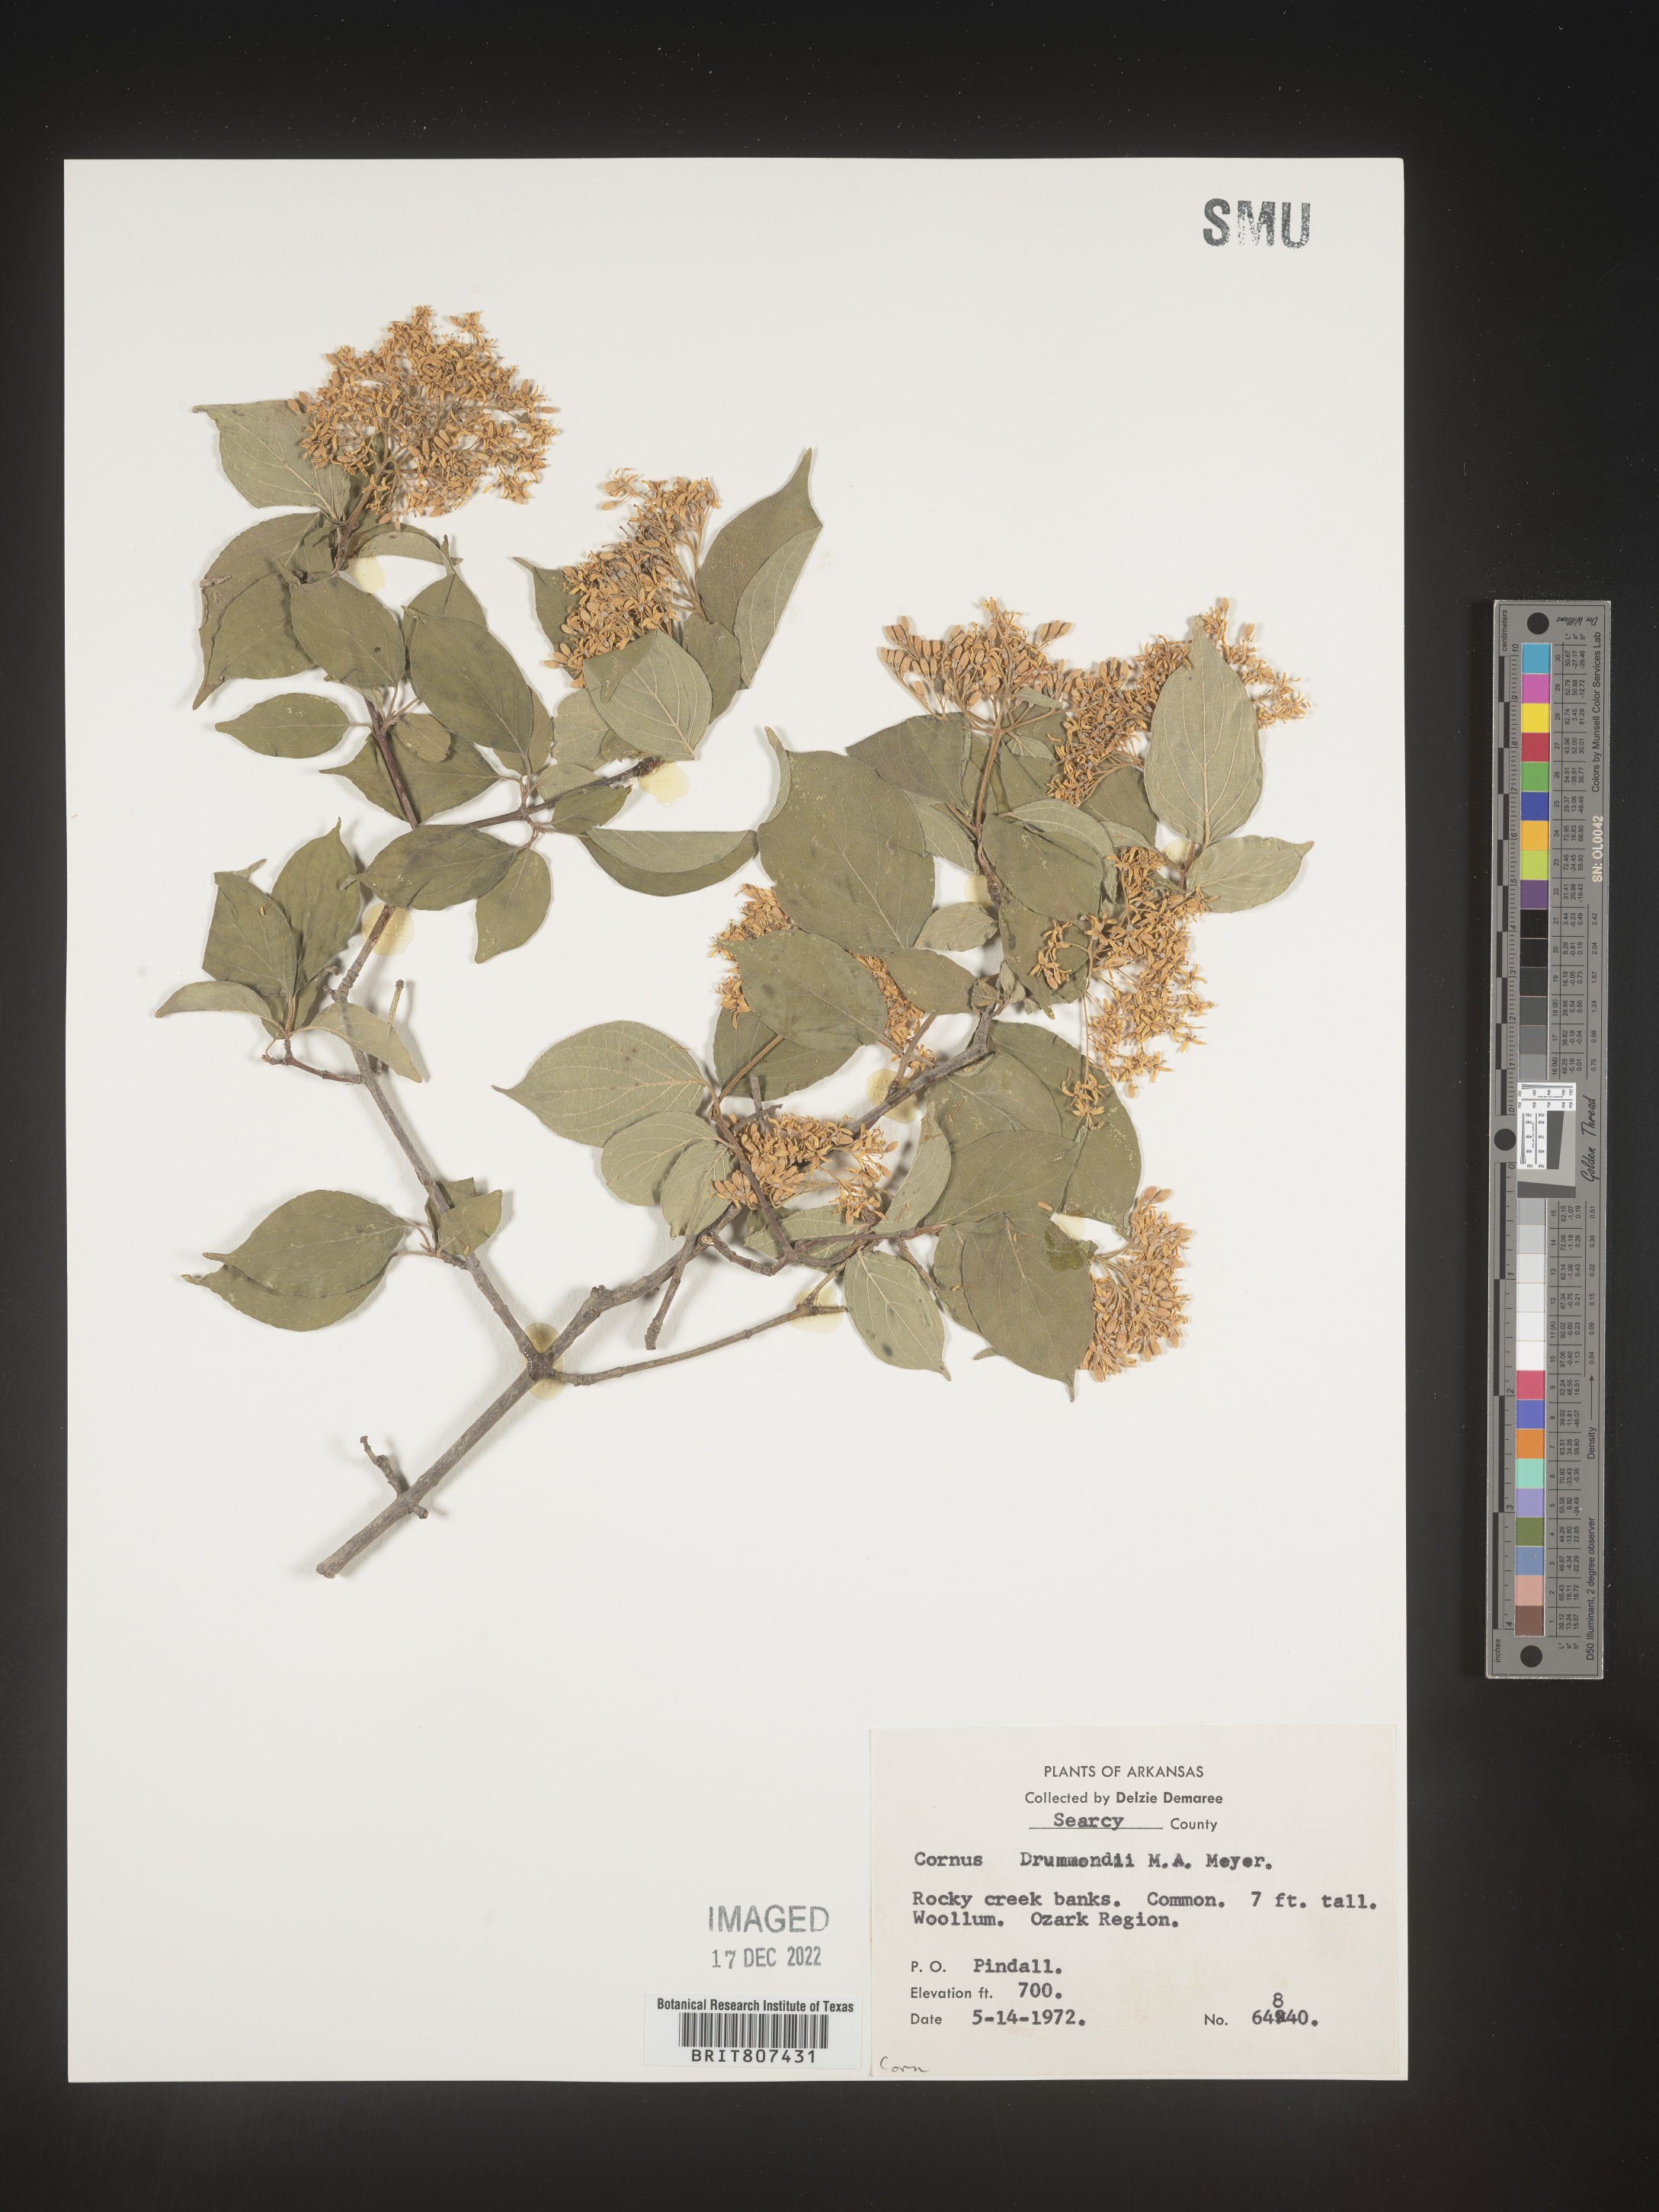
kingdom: Plantae
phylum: Tracheophyta
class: Magnoliopsida
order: Cornales
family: Cornaceae
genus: Cornus
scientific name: Cornus drummondii
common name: Rough-leaf dogwood
